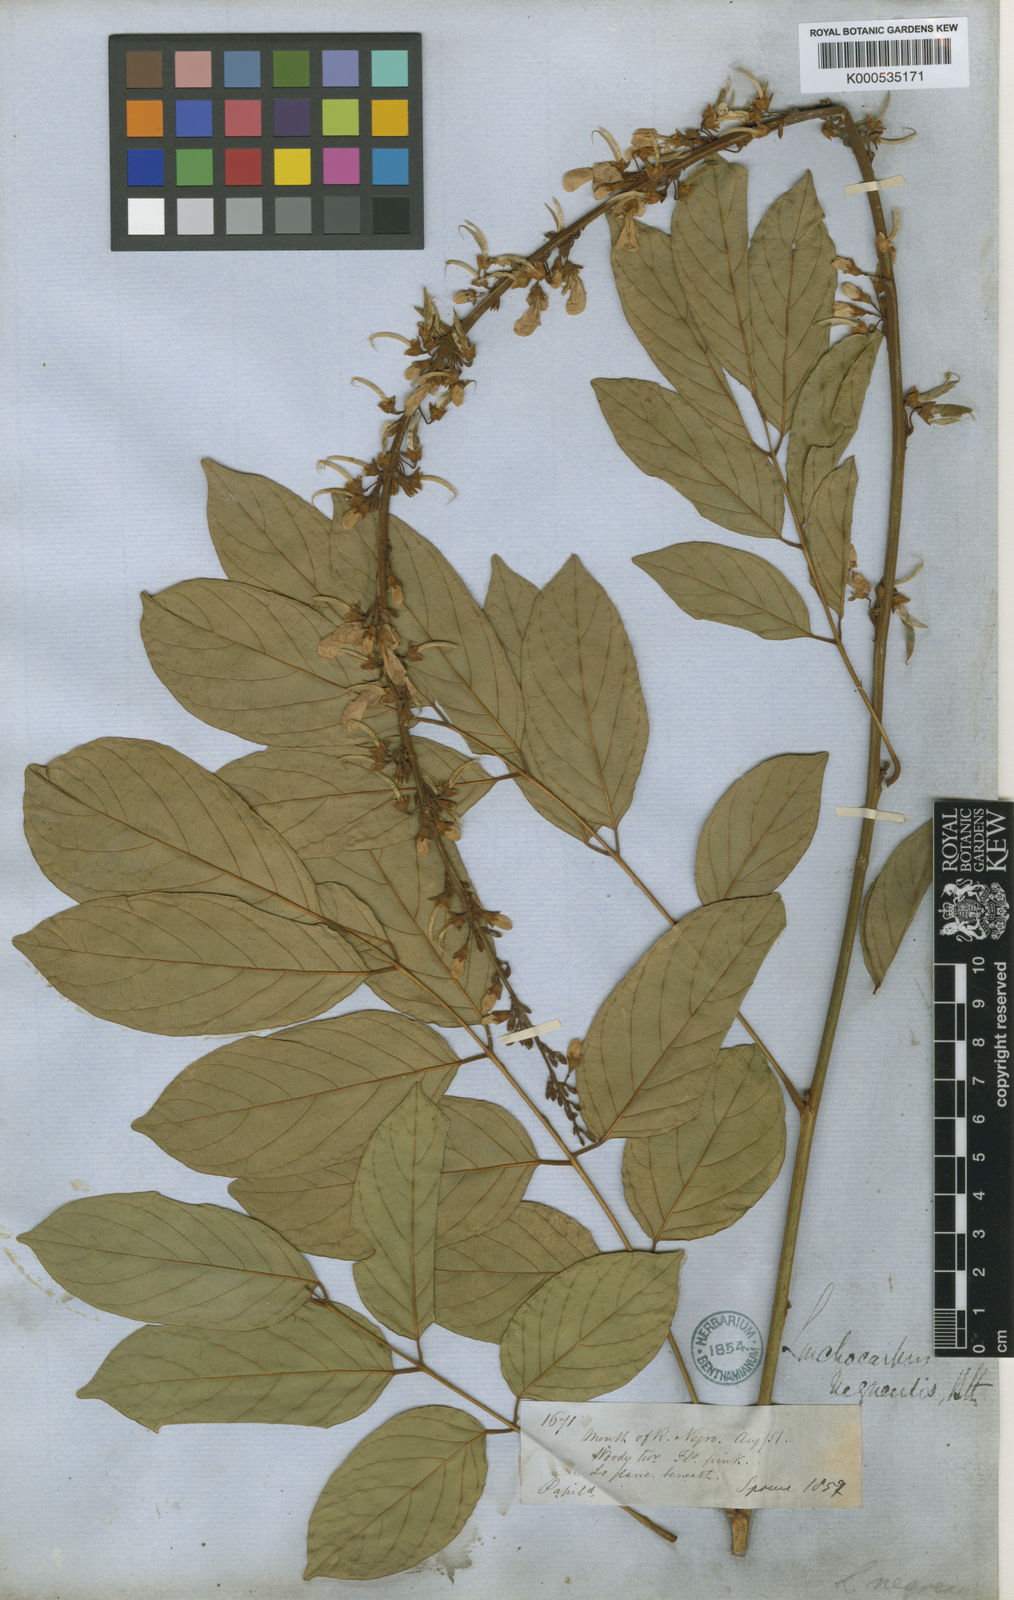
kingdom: Plantae
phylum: Tracheophyta
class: Magnoliopsida
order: Fabales
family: Fabaceae
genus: Deguelia
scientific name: Deguelia negrensis
